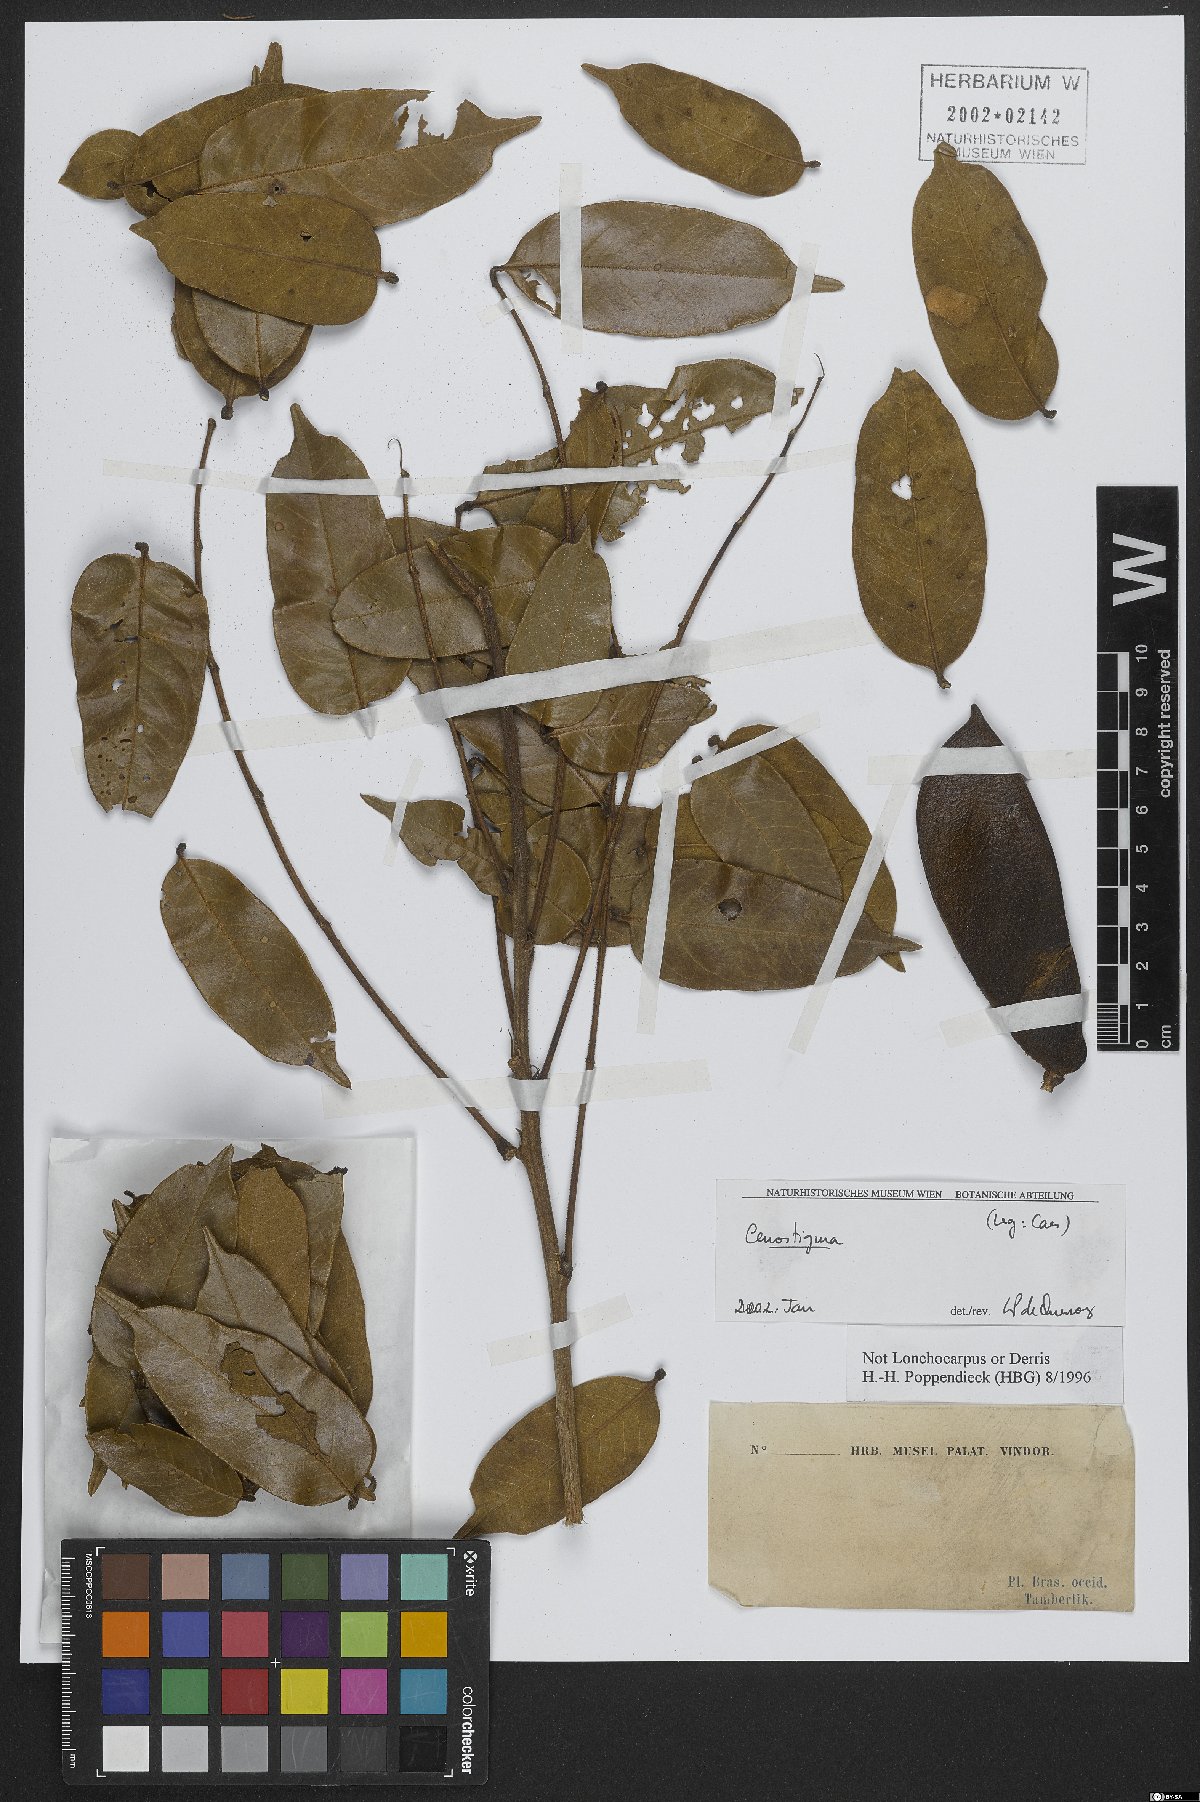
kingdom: Plantae
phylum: Tracheophyta
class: Magnoliopsida
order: Fabales
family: Fabaceae
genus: Cenostigma
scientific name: Cenostigma
